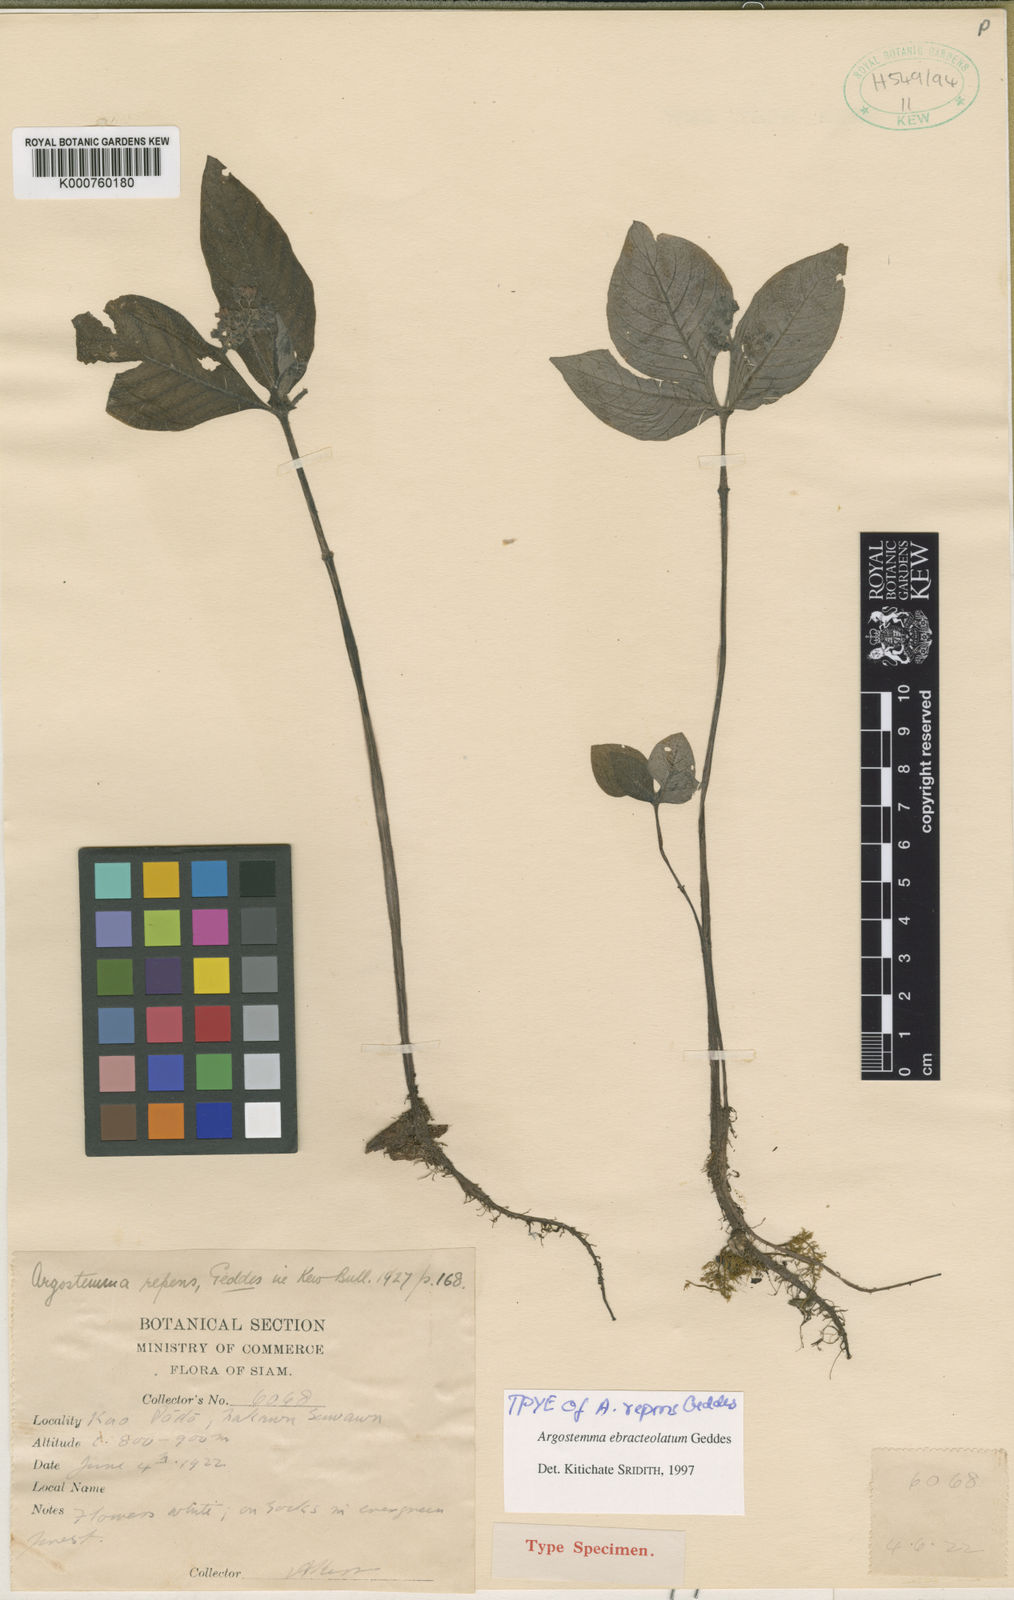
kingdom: Plantae
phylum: Tracheophyta
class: Magnoliopsida
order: Gentianales
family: Rubiaceae
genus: Argostemma
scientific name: Argostemma ebracteolatum
